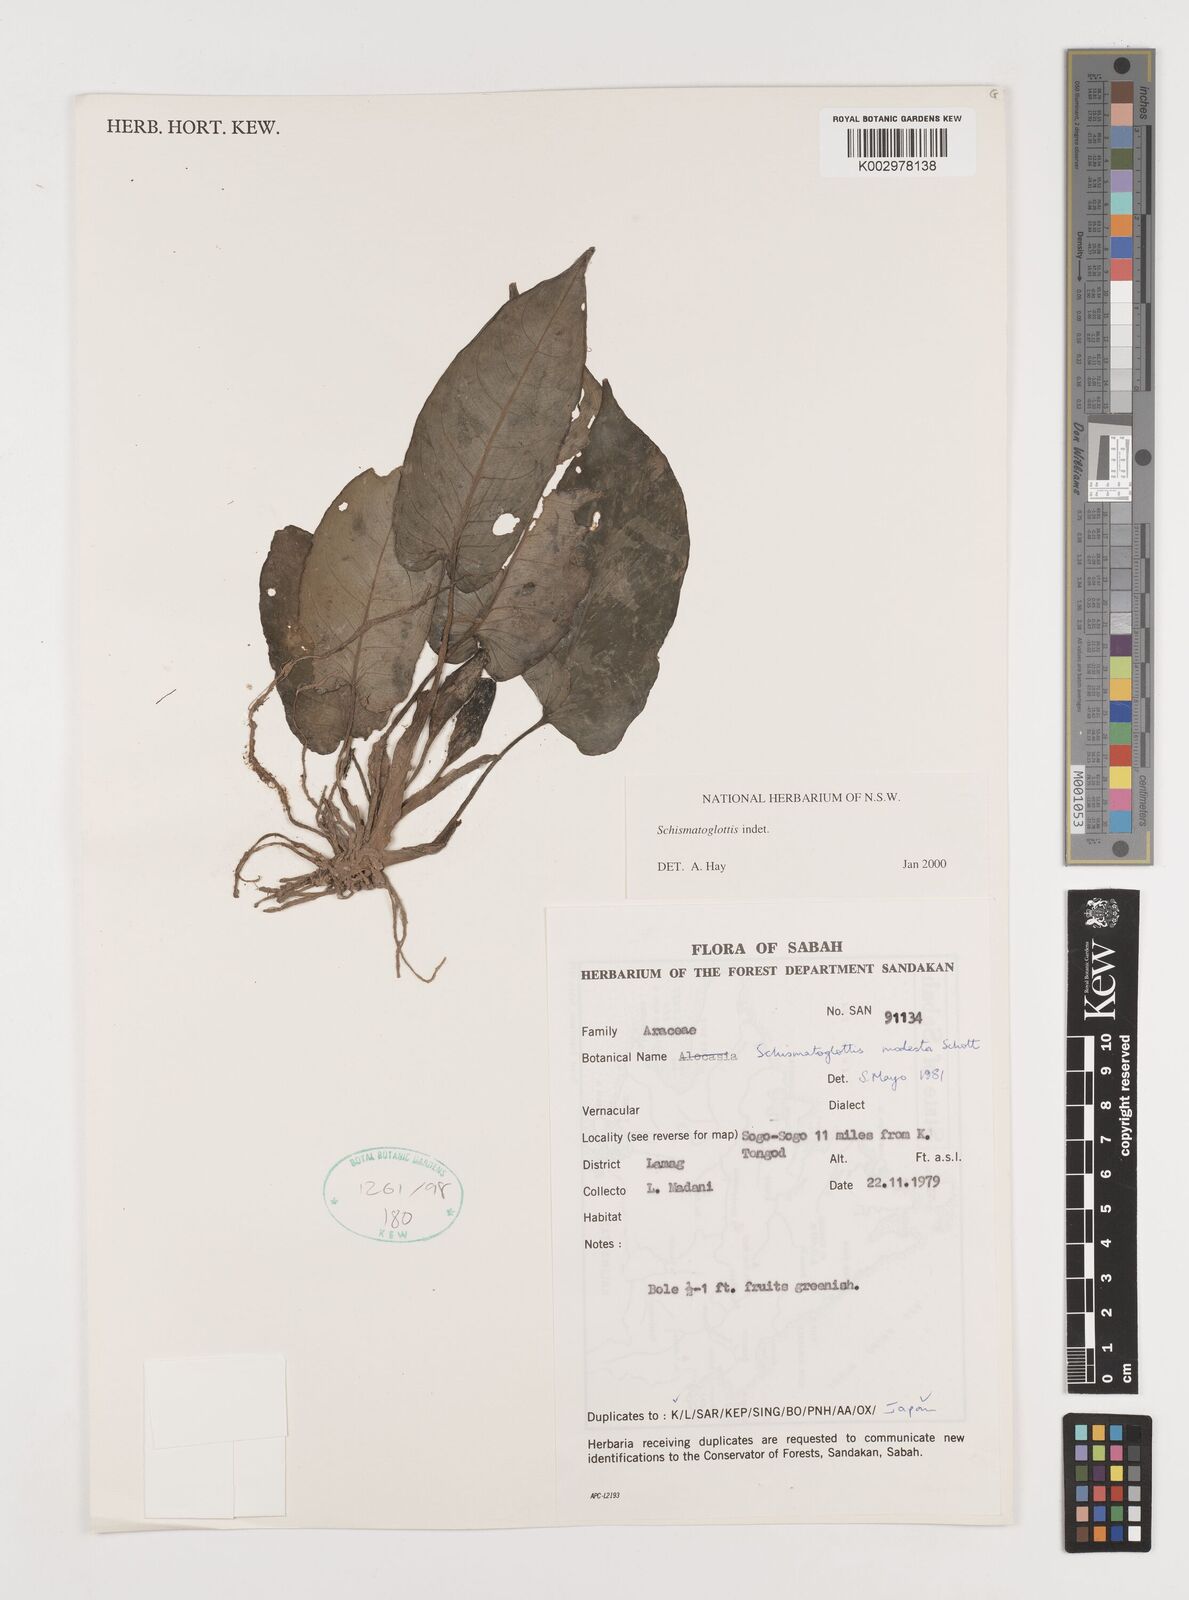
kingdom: Plantae
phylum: Tracheophyta
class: Liliopsida
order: Alismatales
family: Araceae
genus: Schismatoglottis
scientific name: Schismatoglottis
